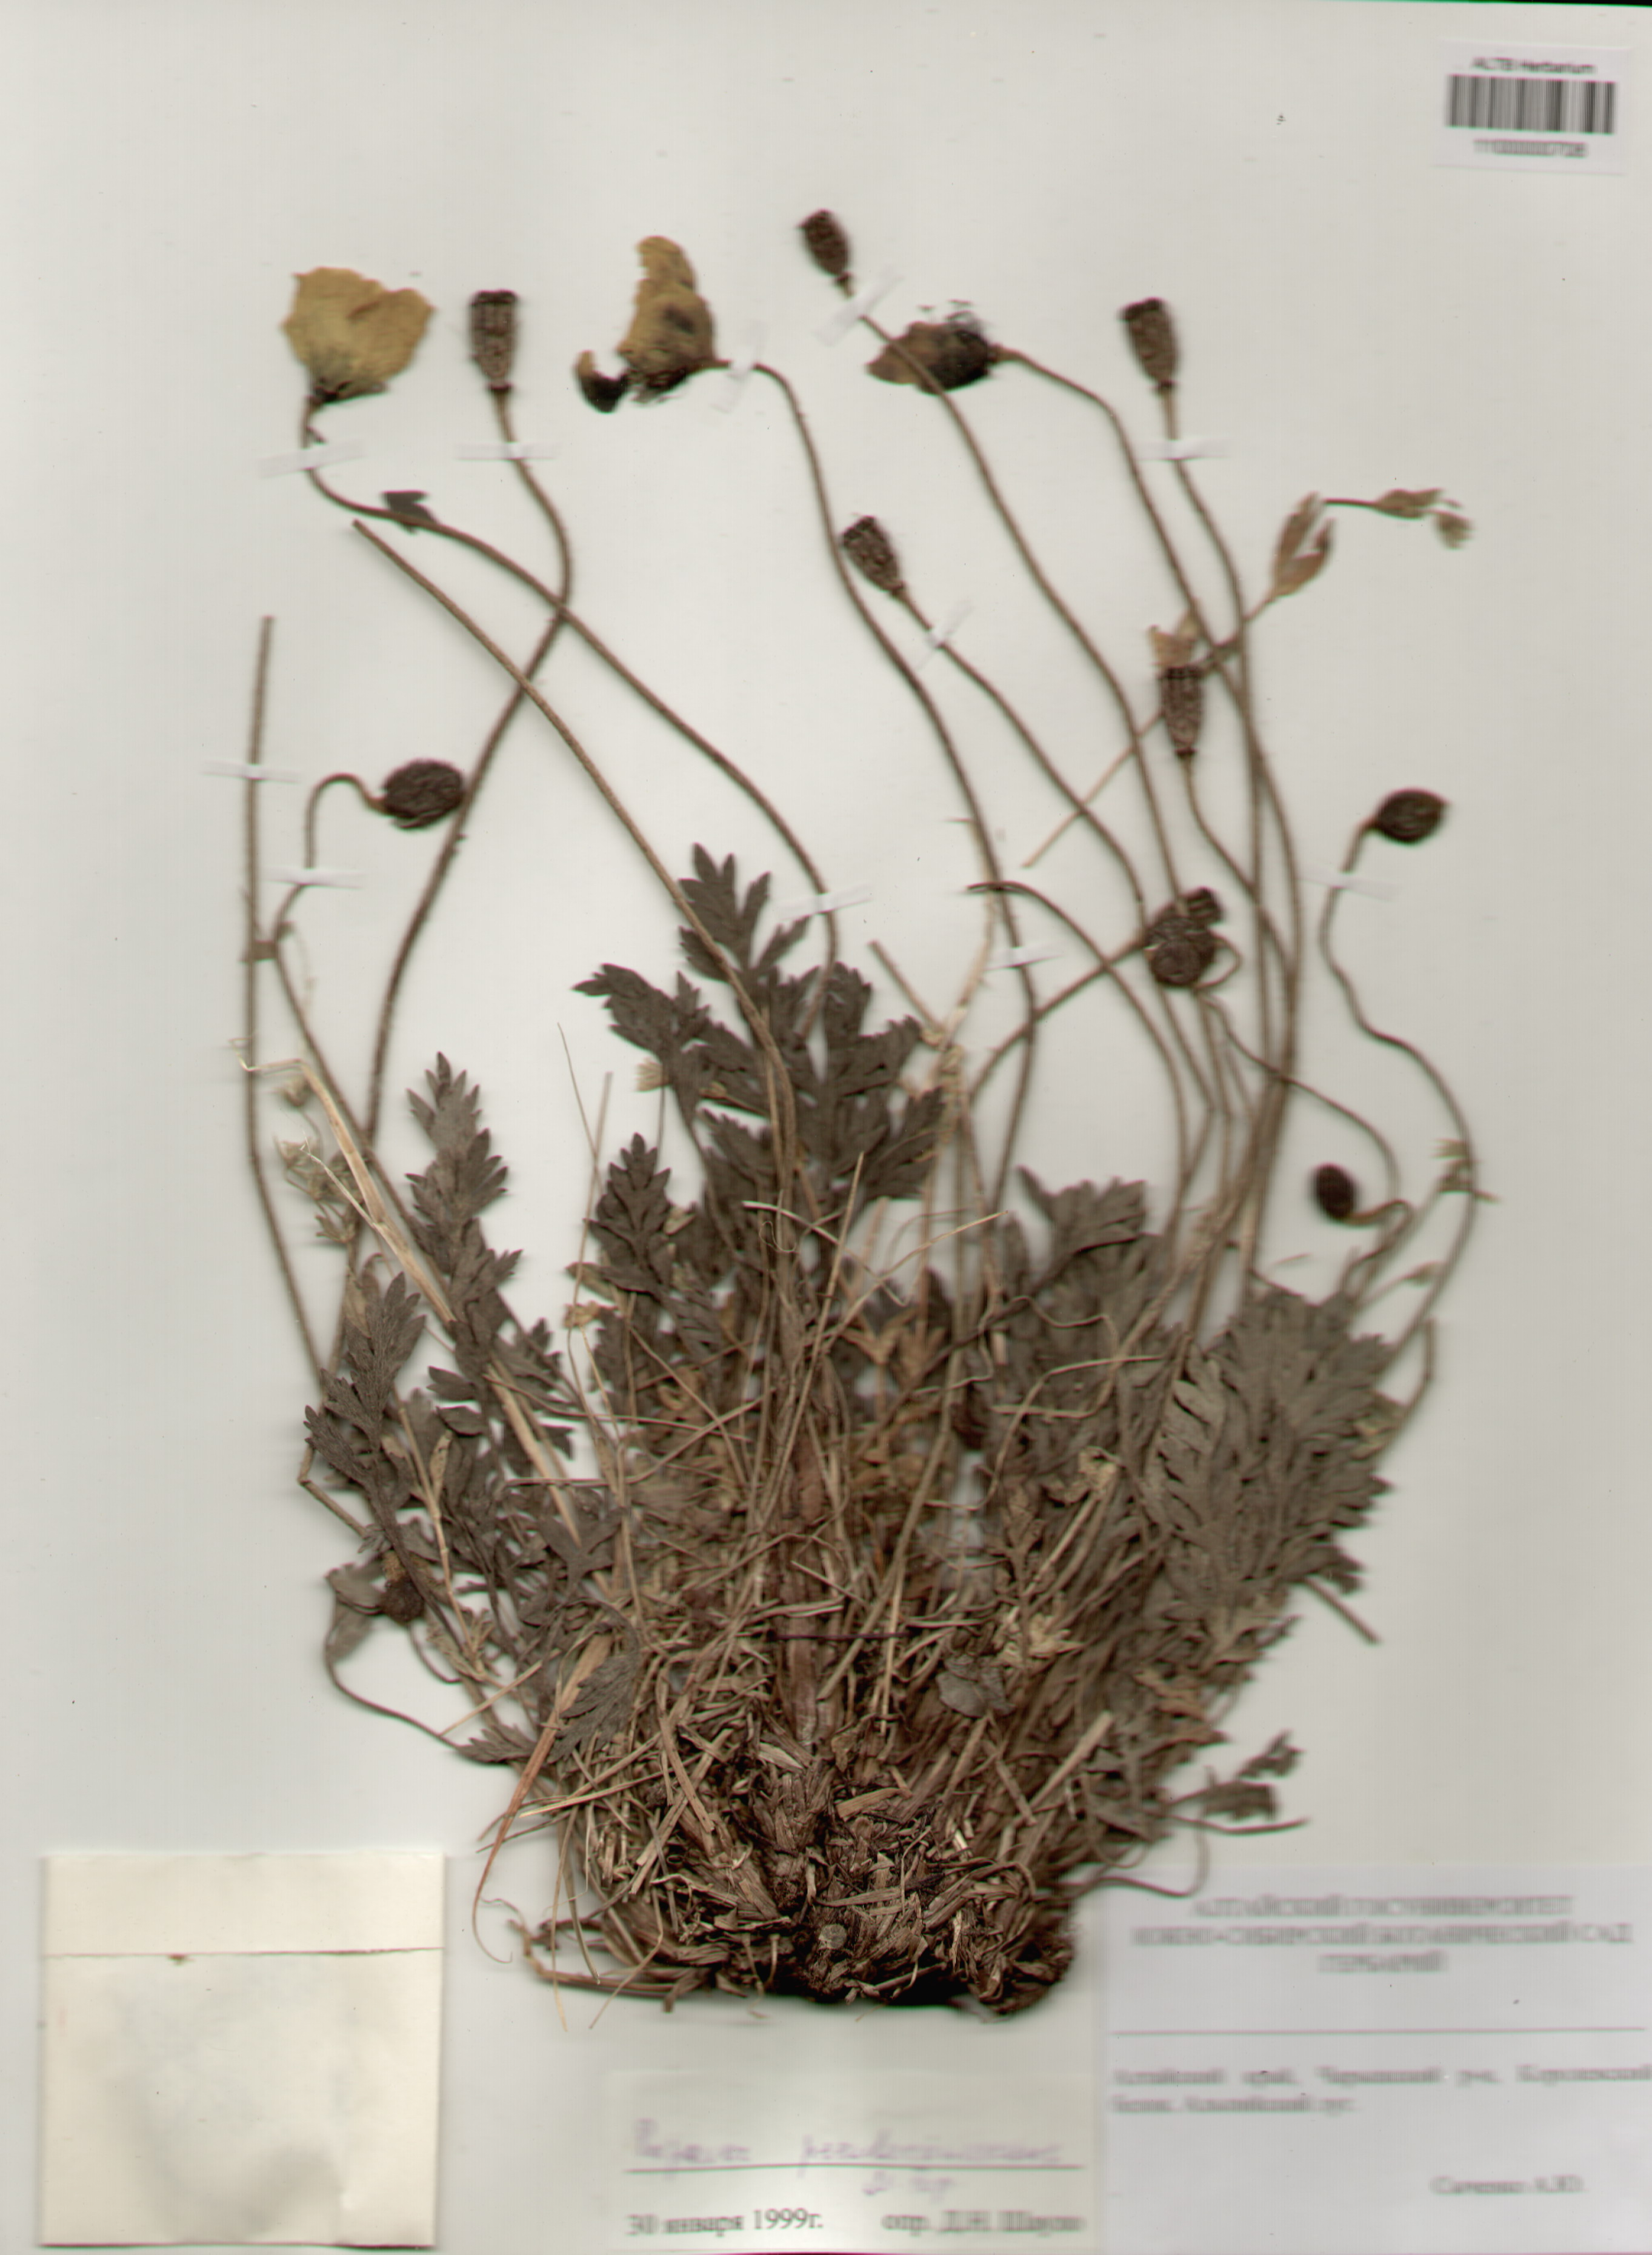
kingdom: Plantae
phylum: Tracheophyta
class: Magnoliopsida
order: Ranunculales
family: Papaveraceae
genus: Papaver
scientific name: Papaver canescens
